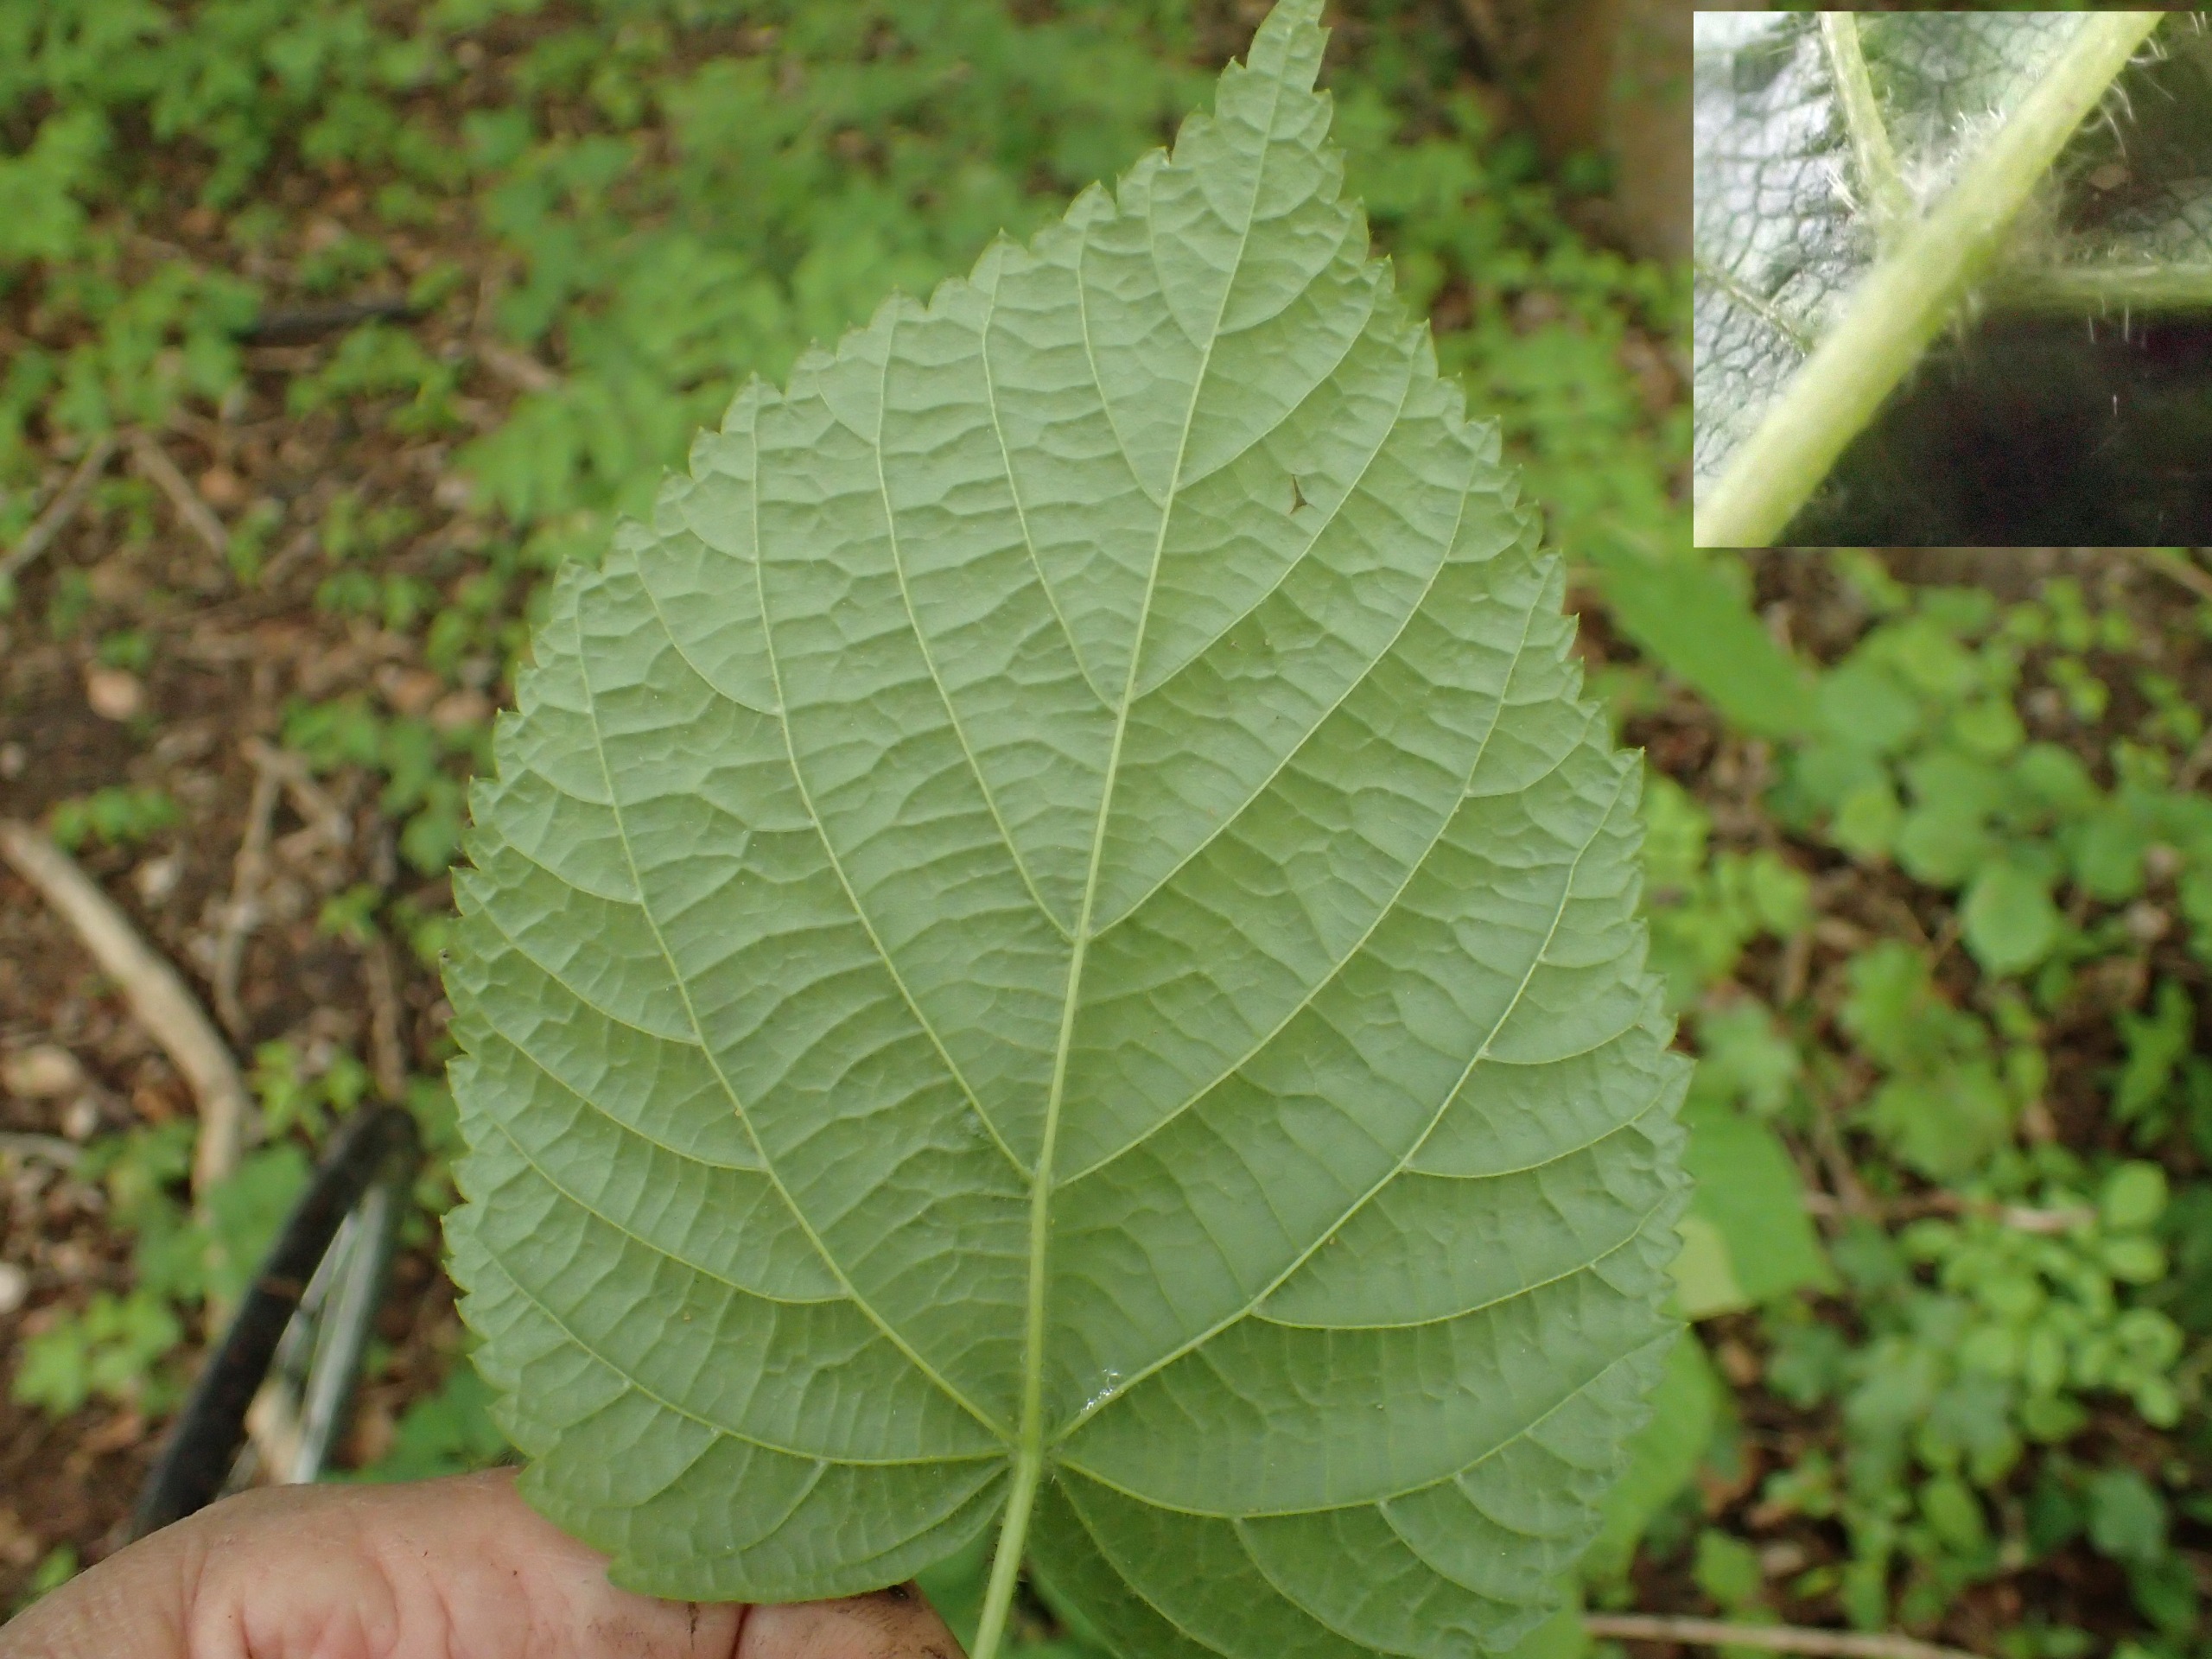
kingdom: Plantae
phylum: Tracheophyta
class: Magnoliopsida
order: Malvales
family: Malvaceae
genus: Tilia
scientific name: Tilia platyphyllos
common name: Storbladet lind
